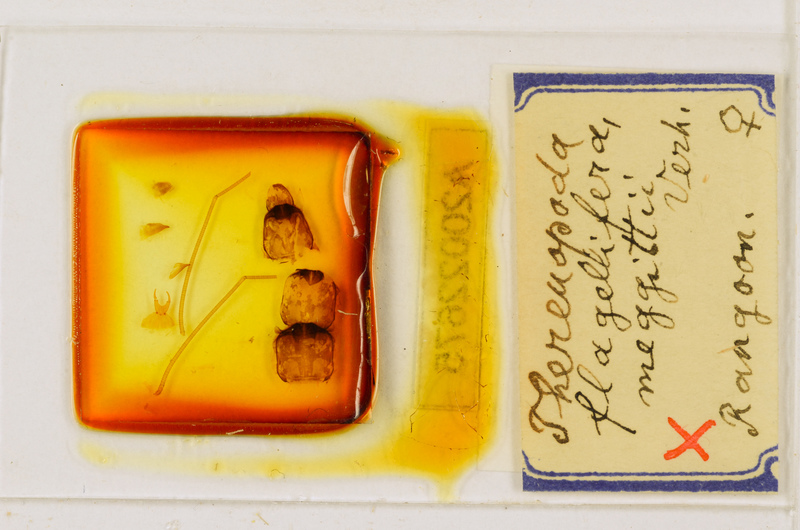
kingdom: Animalia
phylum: Arthropoda
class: Chilopoda
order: Scutigeromorpha
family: Scutigeridae
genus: Thereuopoda
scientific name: Thereuopoda longicornis
